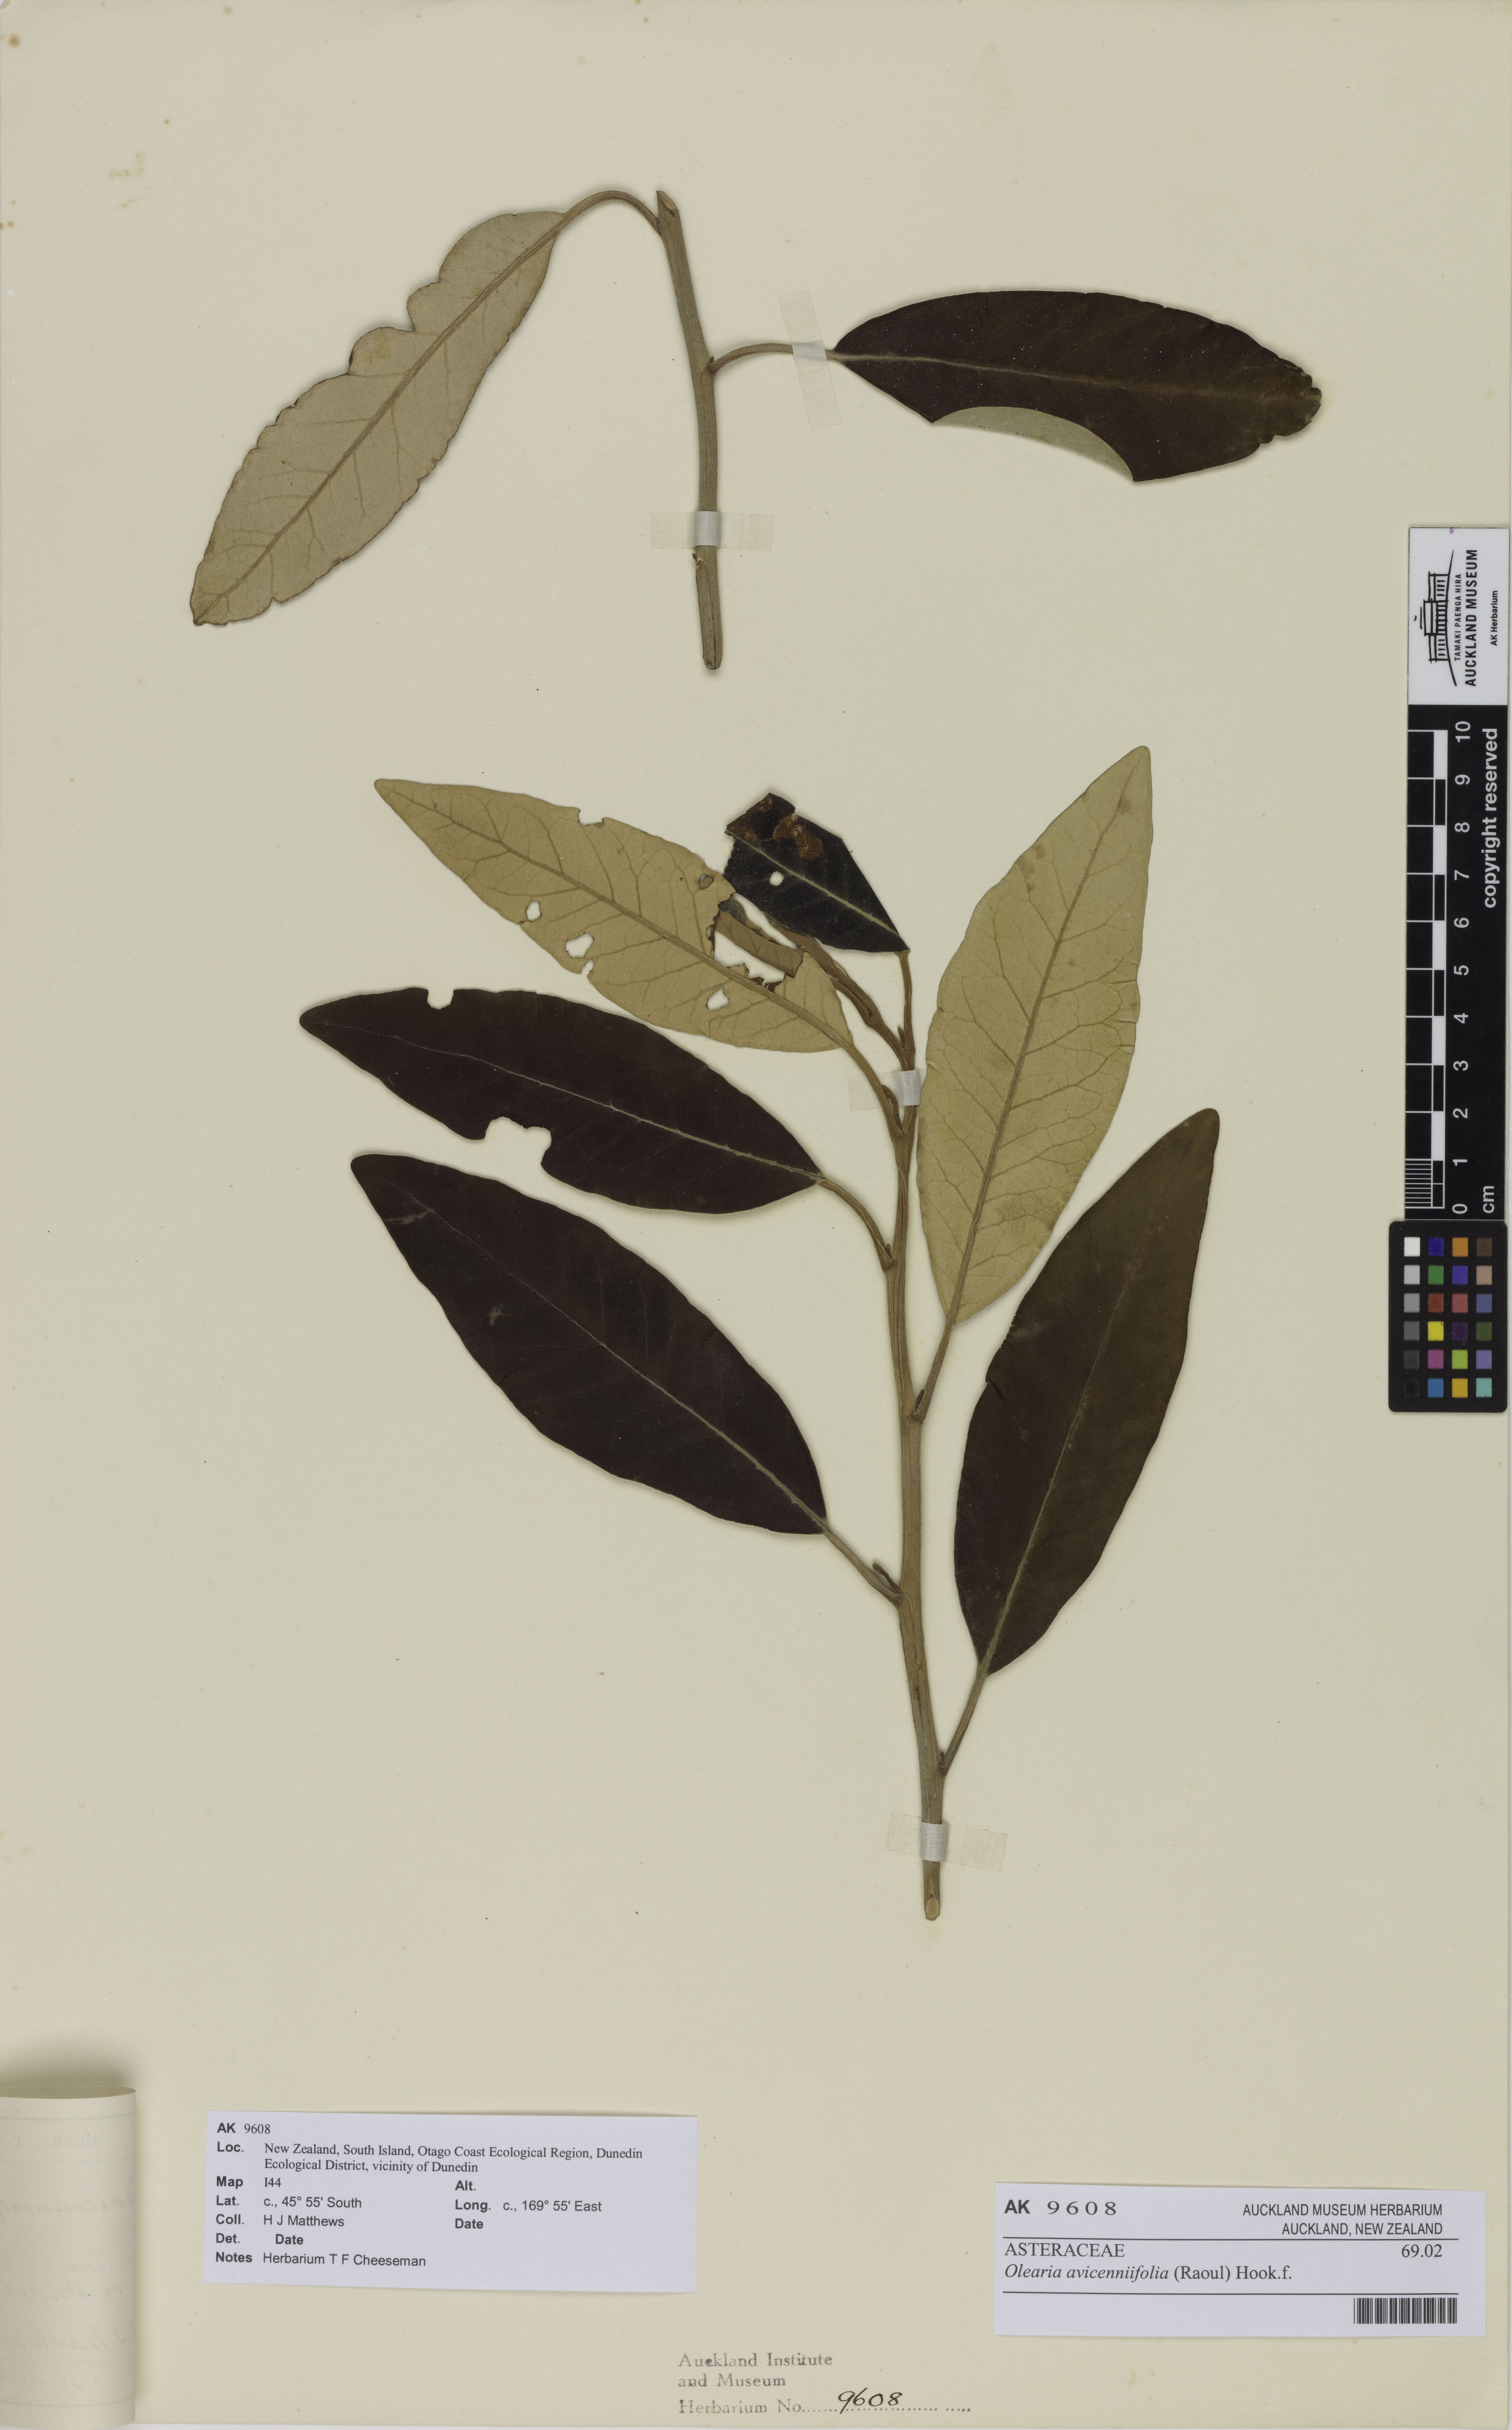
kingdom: Plantae
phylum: Tracheophyta
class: Magnoliopsida
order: Asterales
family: Asteraceae
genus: Olearia
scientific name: Olearia avicenniifolia
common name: Mangrove-leaf daisybush
